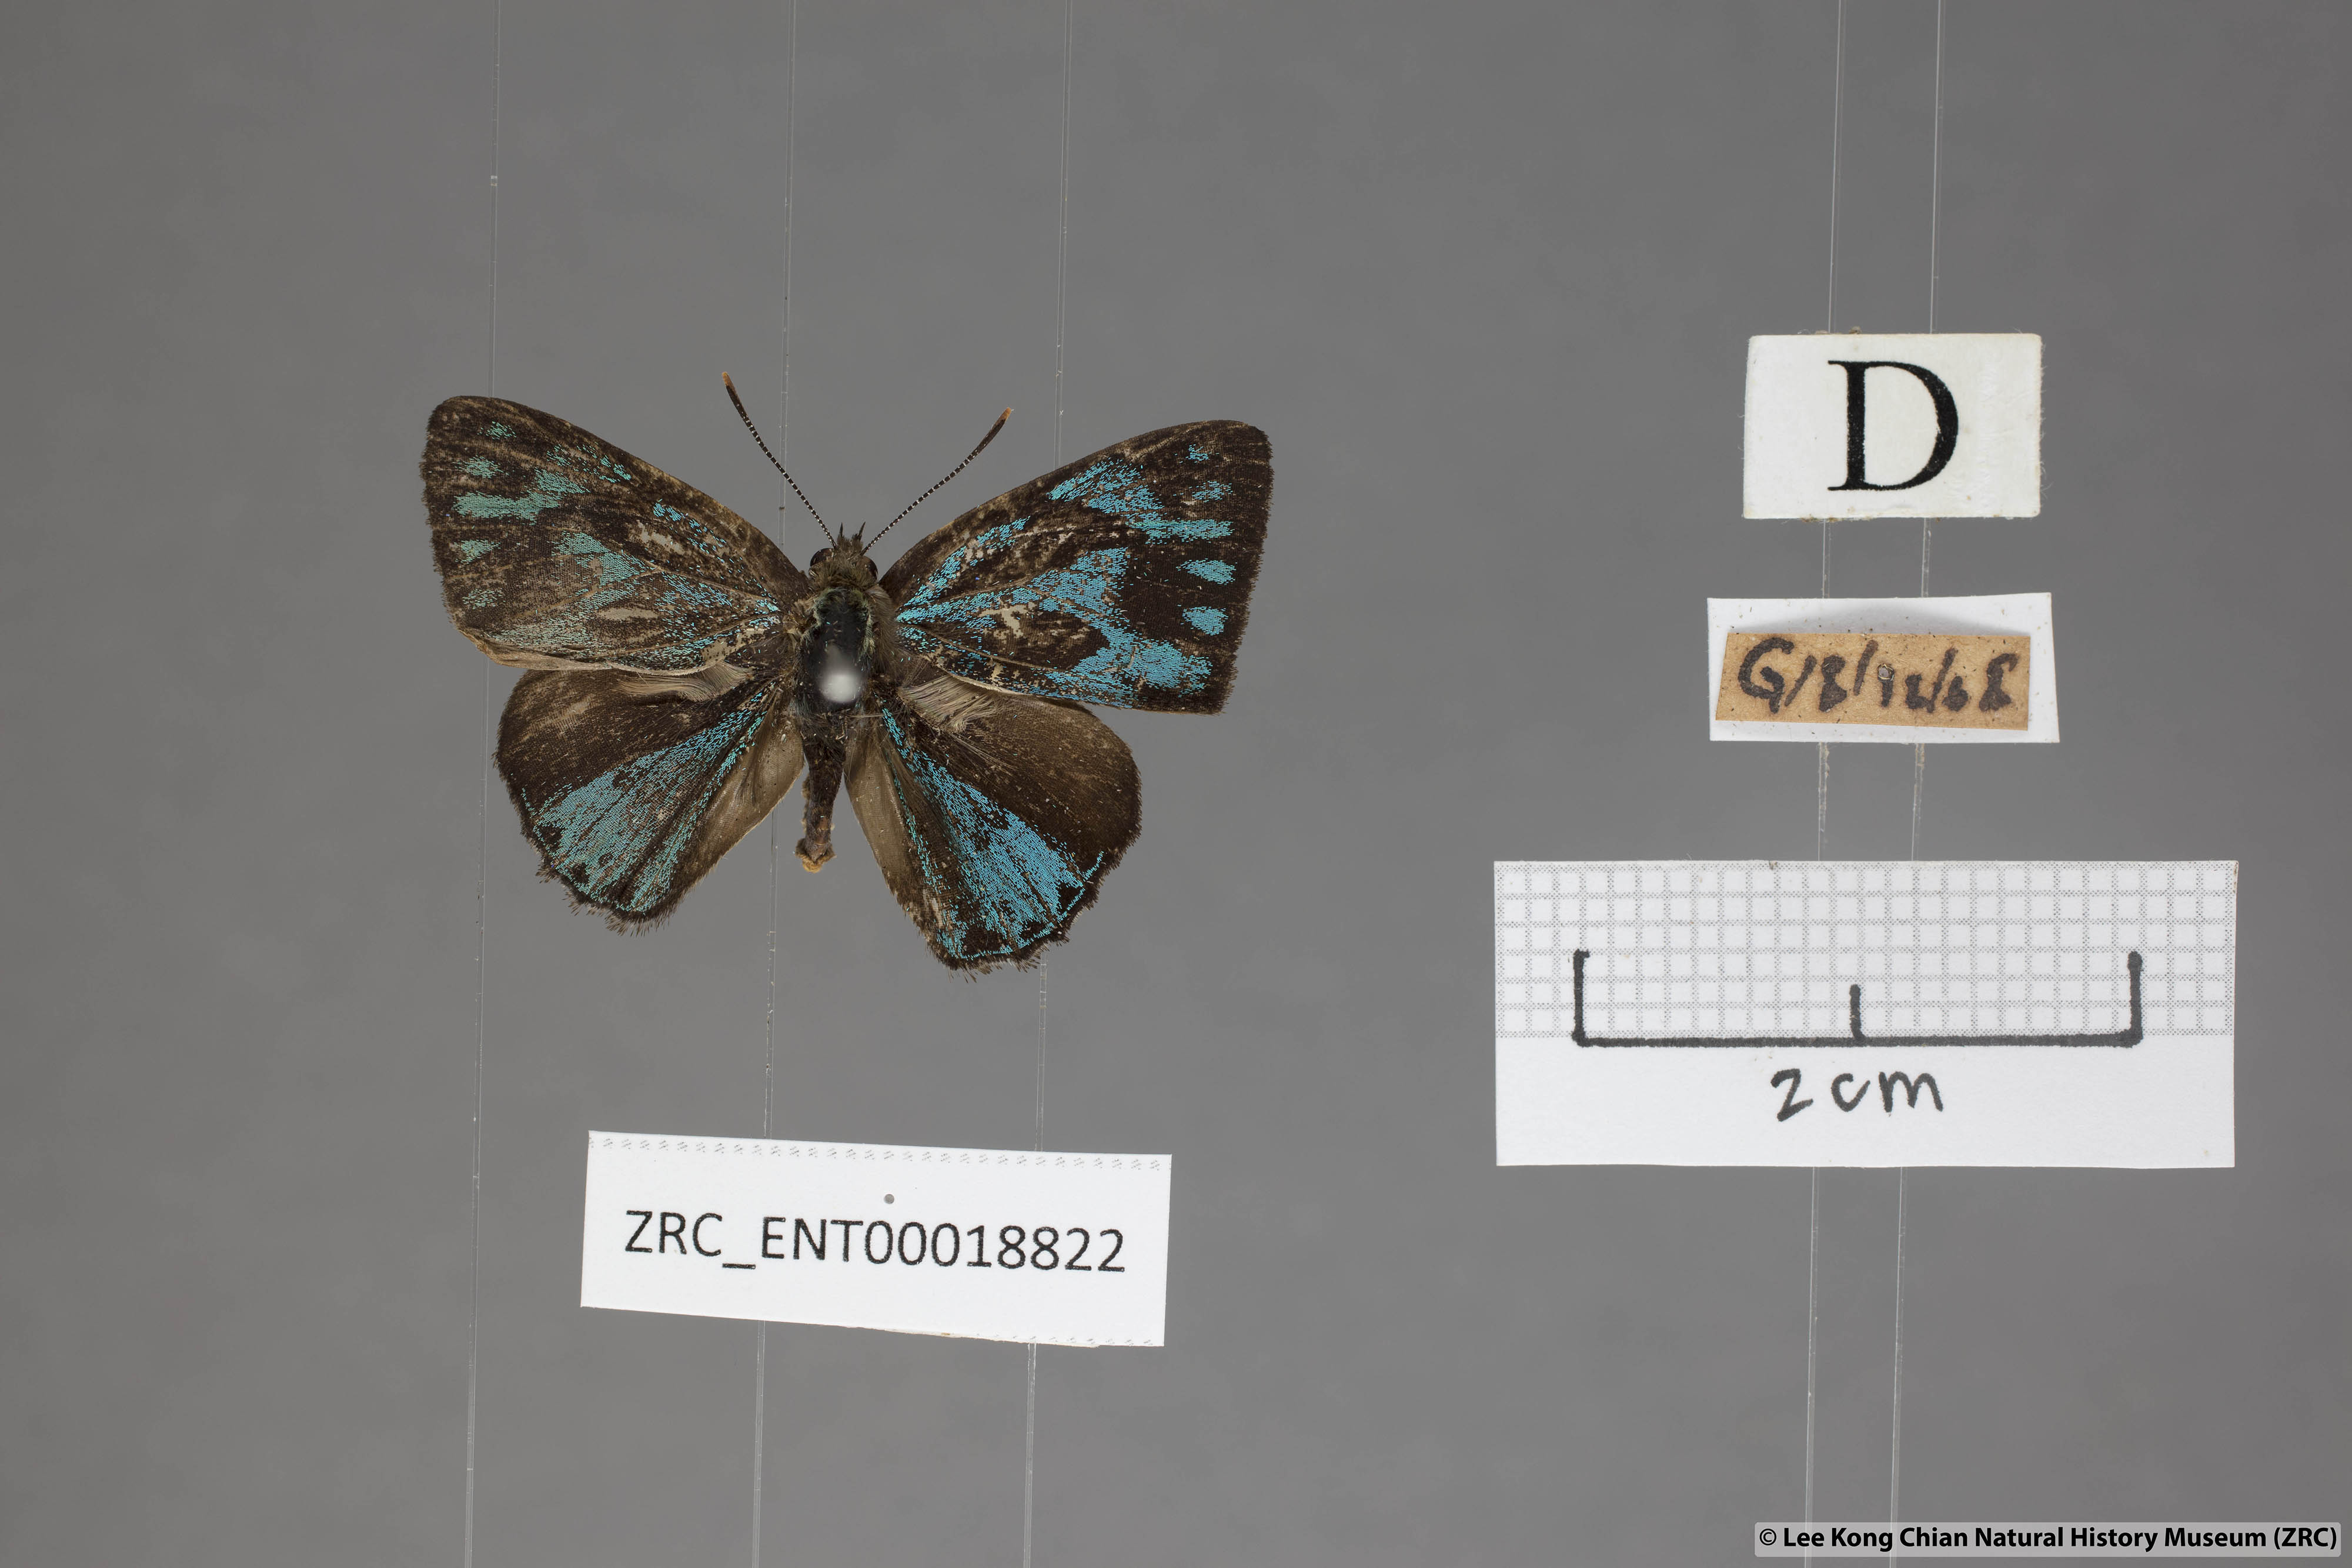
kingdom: Animalia
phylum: Arthropoda
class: Insecta
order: Lepidoptera
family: Lycaenidae
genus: Poritia
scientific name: Poritia philota
